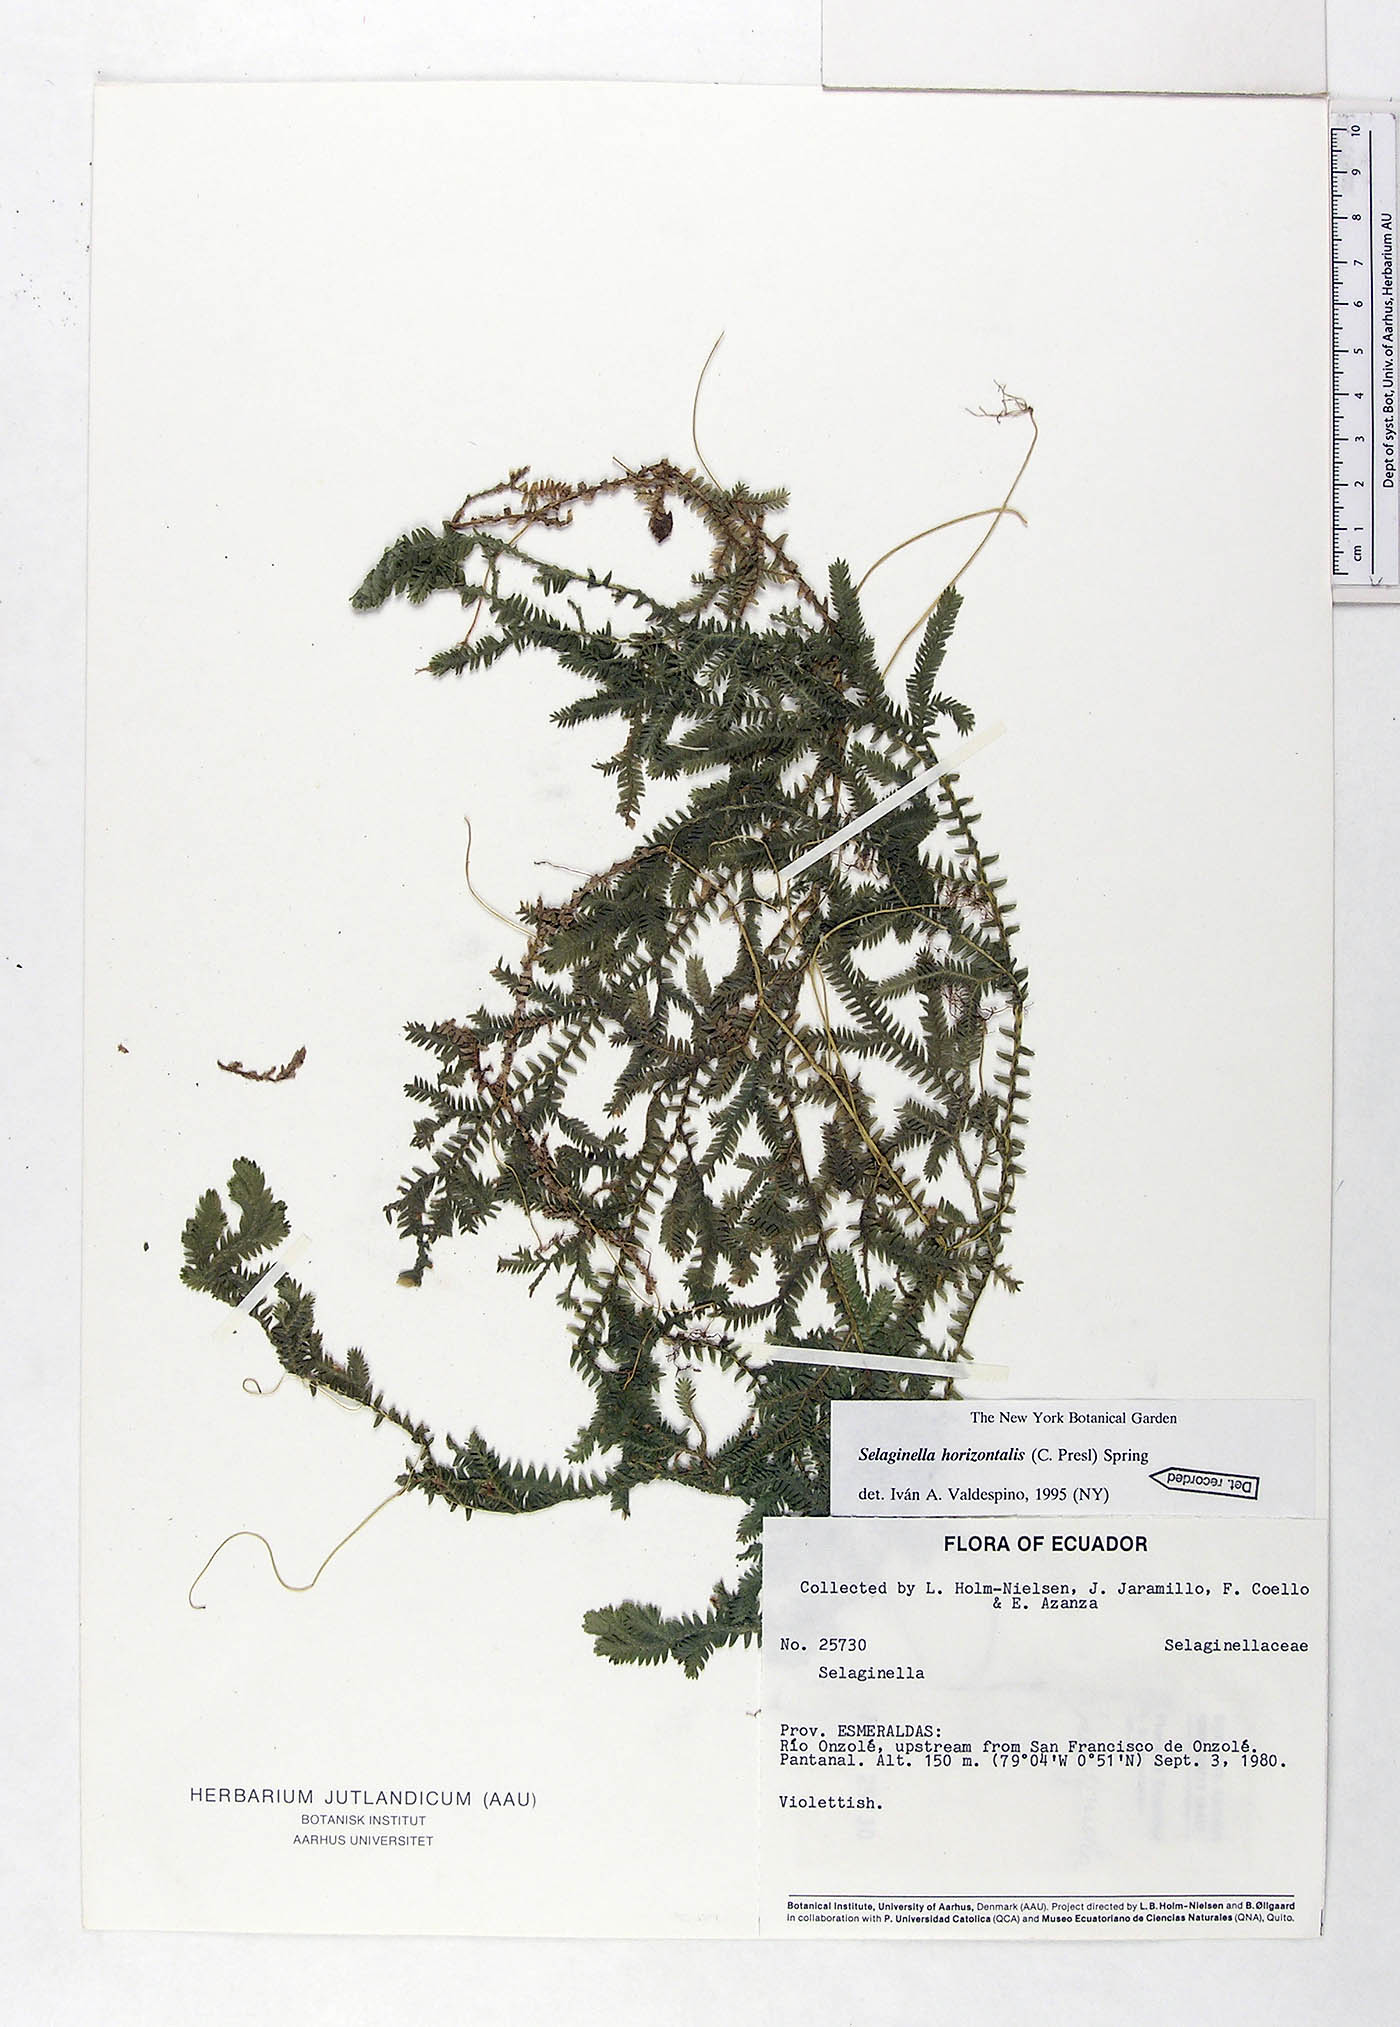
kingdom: Plantae
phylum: Tracheophyta
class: Lycopodiopsida
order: Selaginellales
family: Selaginellaceae
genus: Selaginella
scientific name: Selaginella horizontalis
